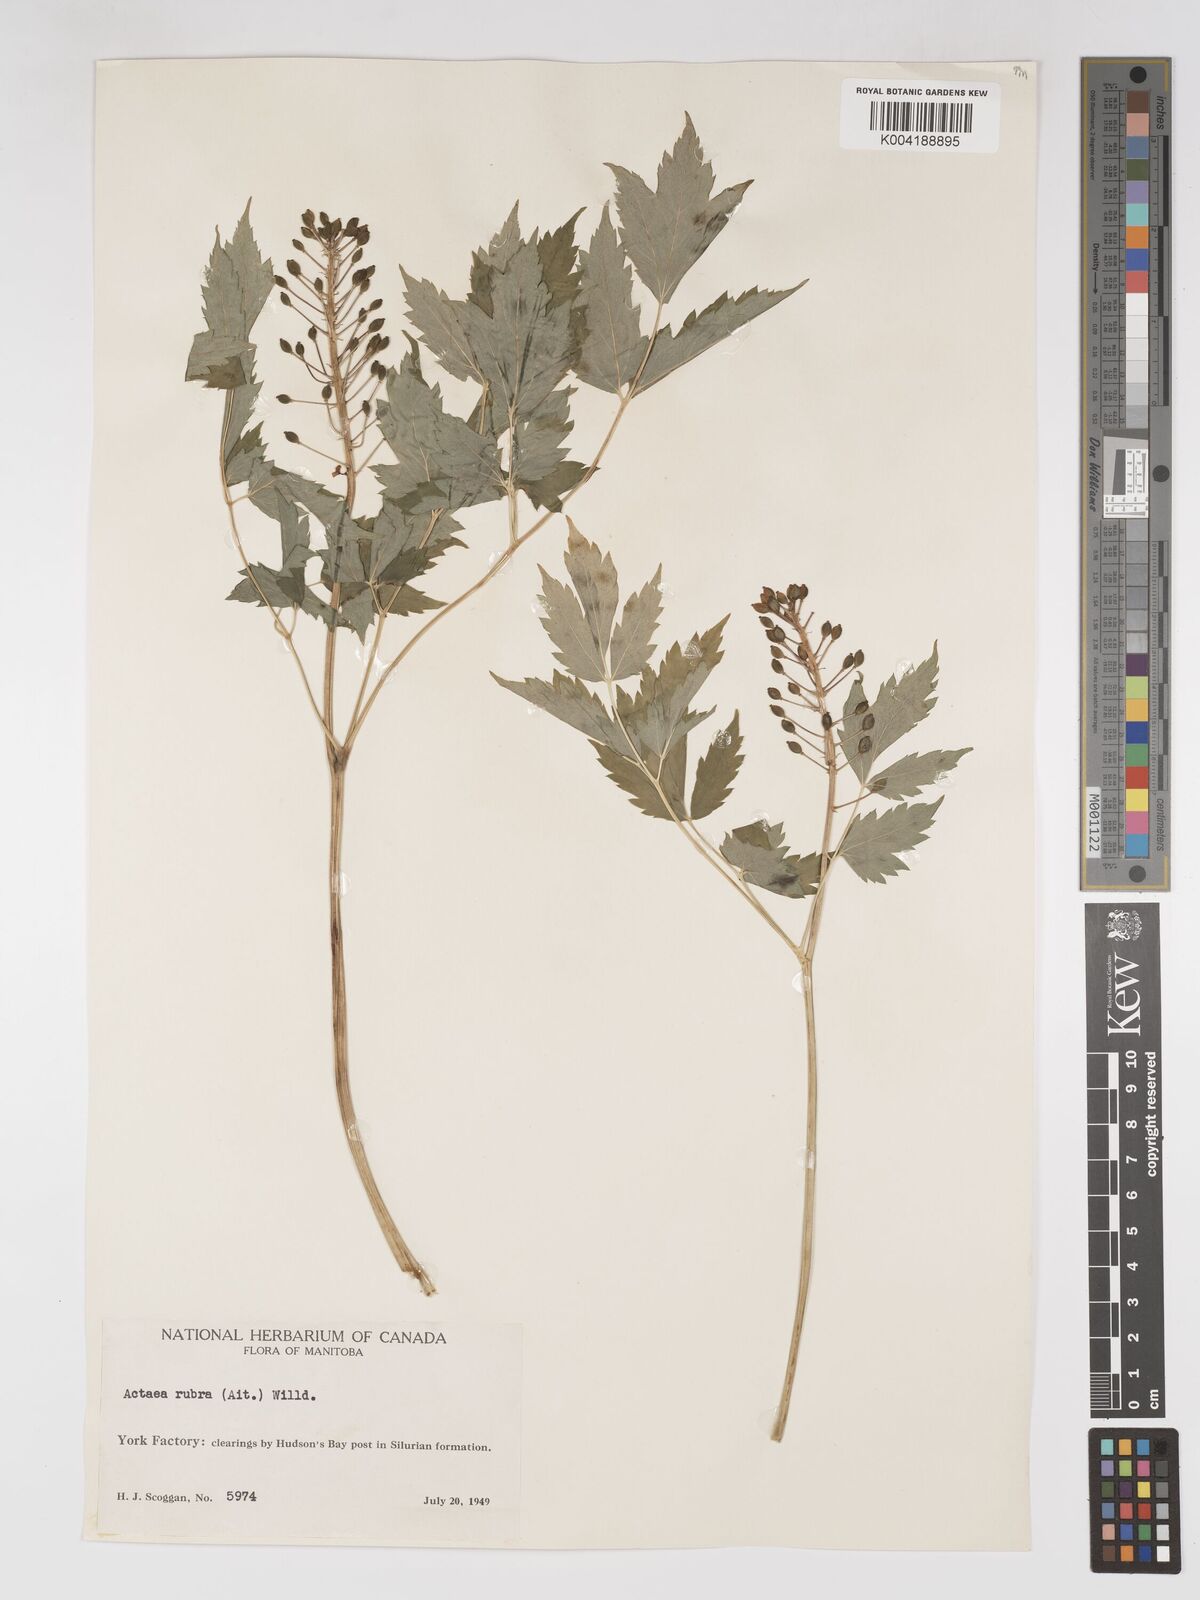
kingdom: Plantae
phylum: Tracheophyta
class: Magnoliopsida
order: Ranunculales
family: Ranunculaceae
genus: Actaea
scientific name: Actaea spicata
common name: Baneberry
